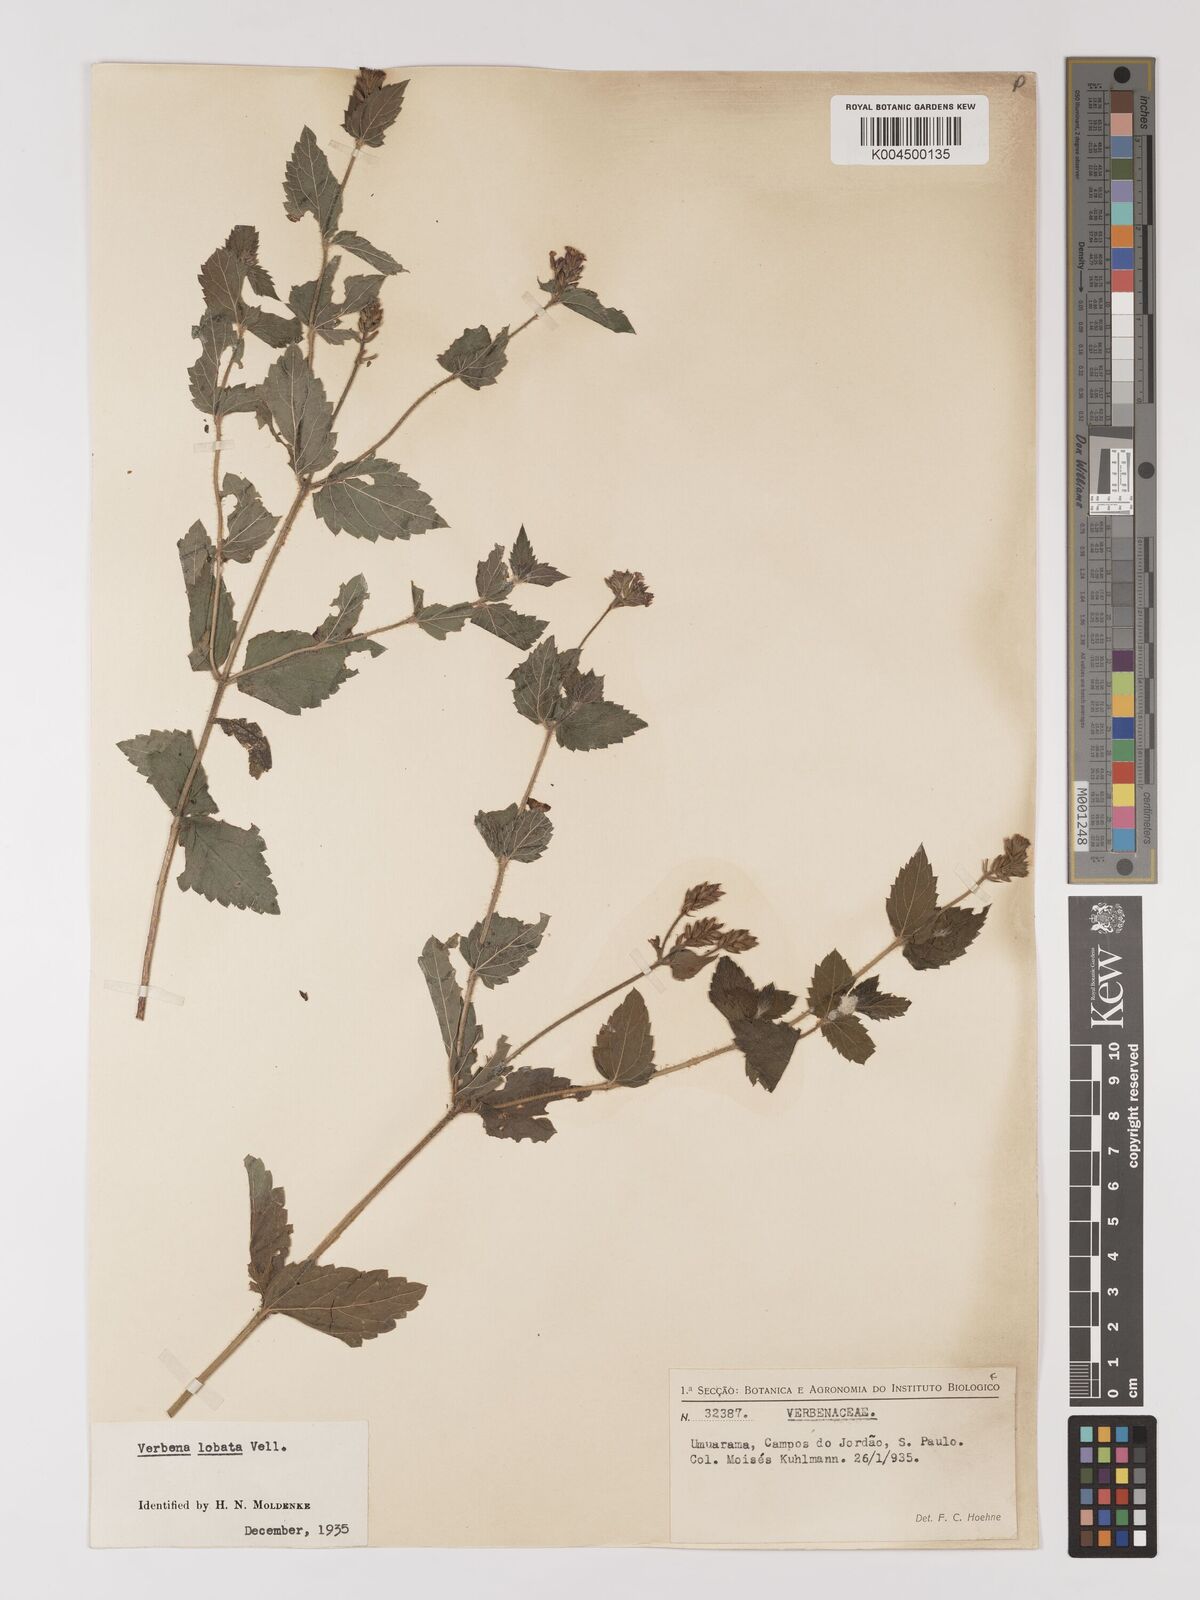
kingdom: Plantae
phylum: Tracheophyta
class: Magnoliopsida
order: Lamiales
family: Verbenaceae
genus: Verbena
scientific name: Verbena lobata
